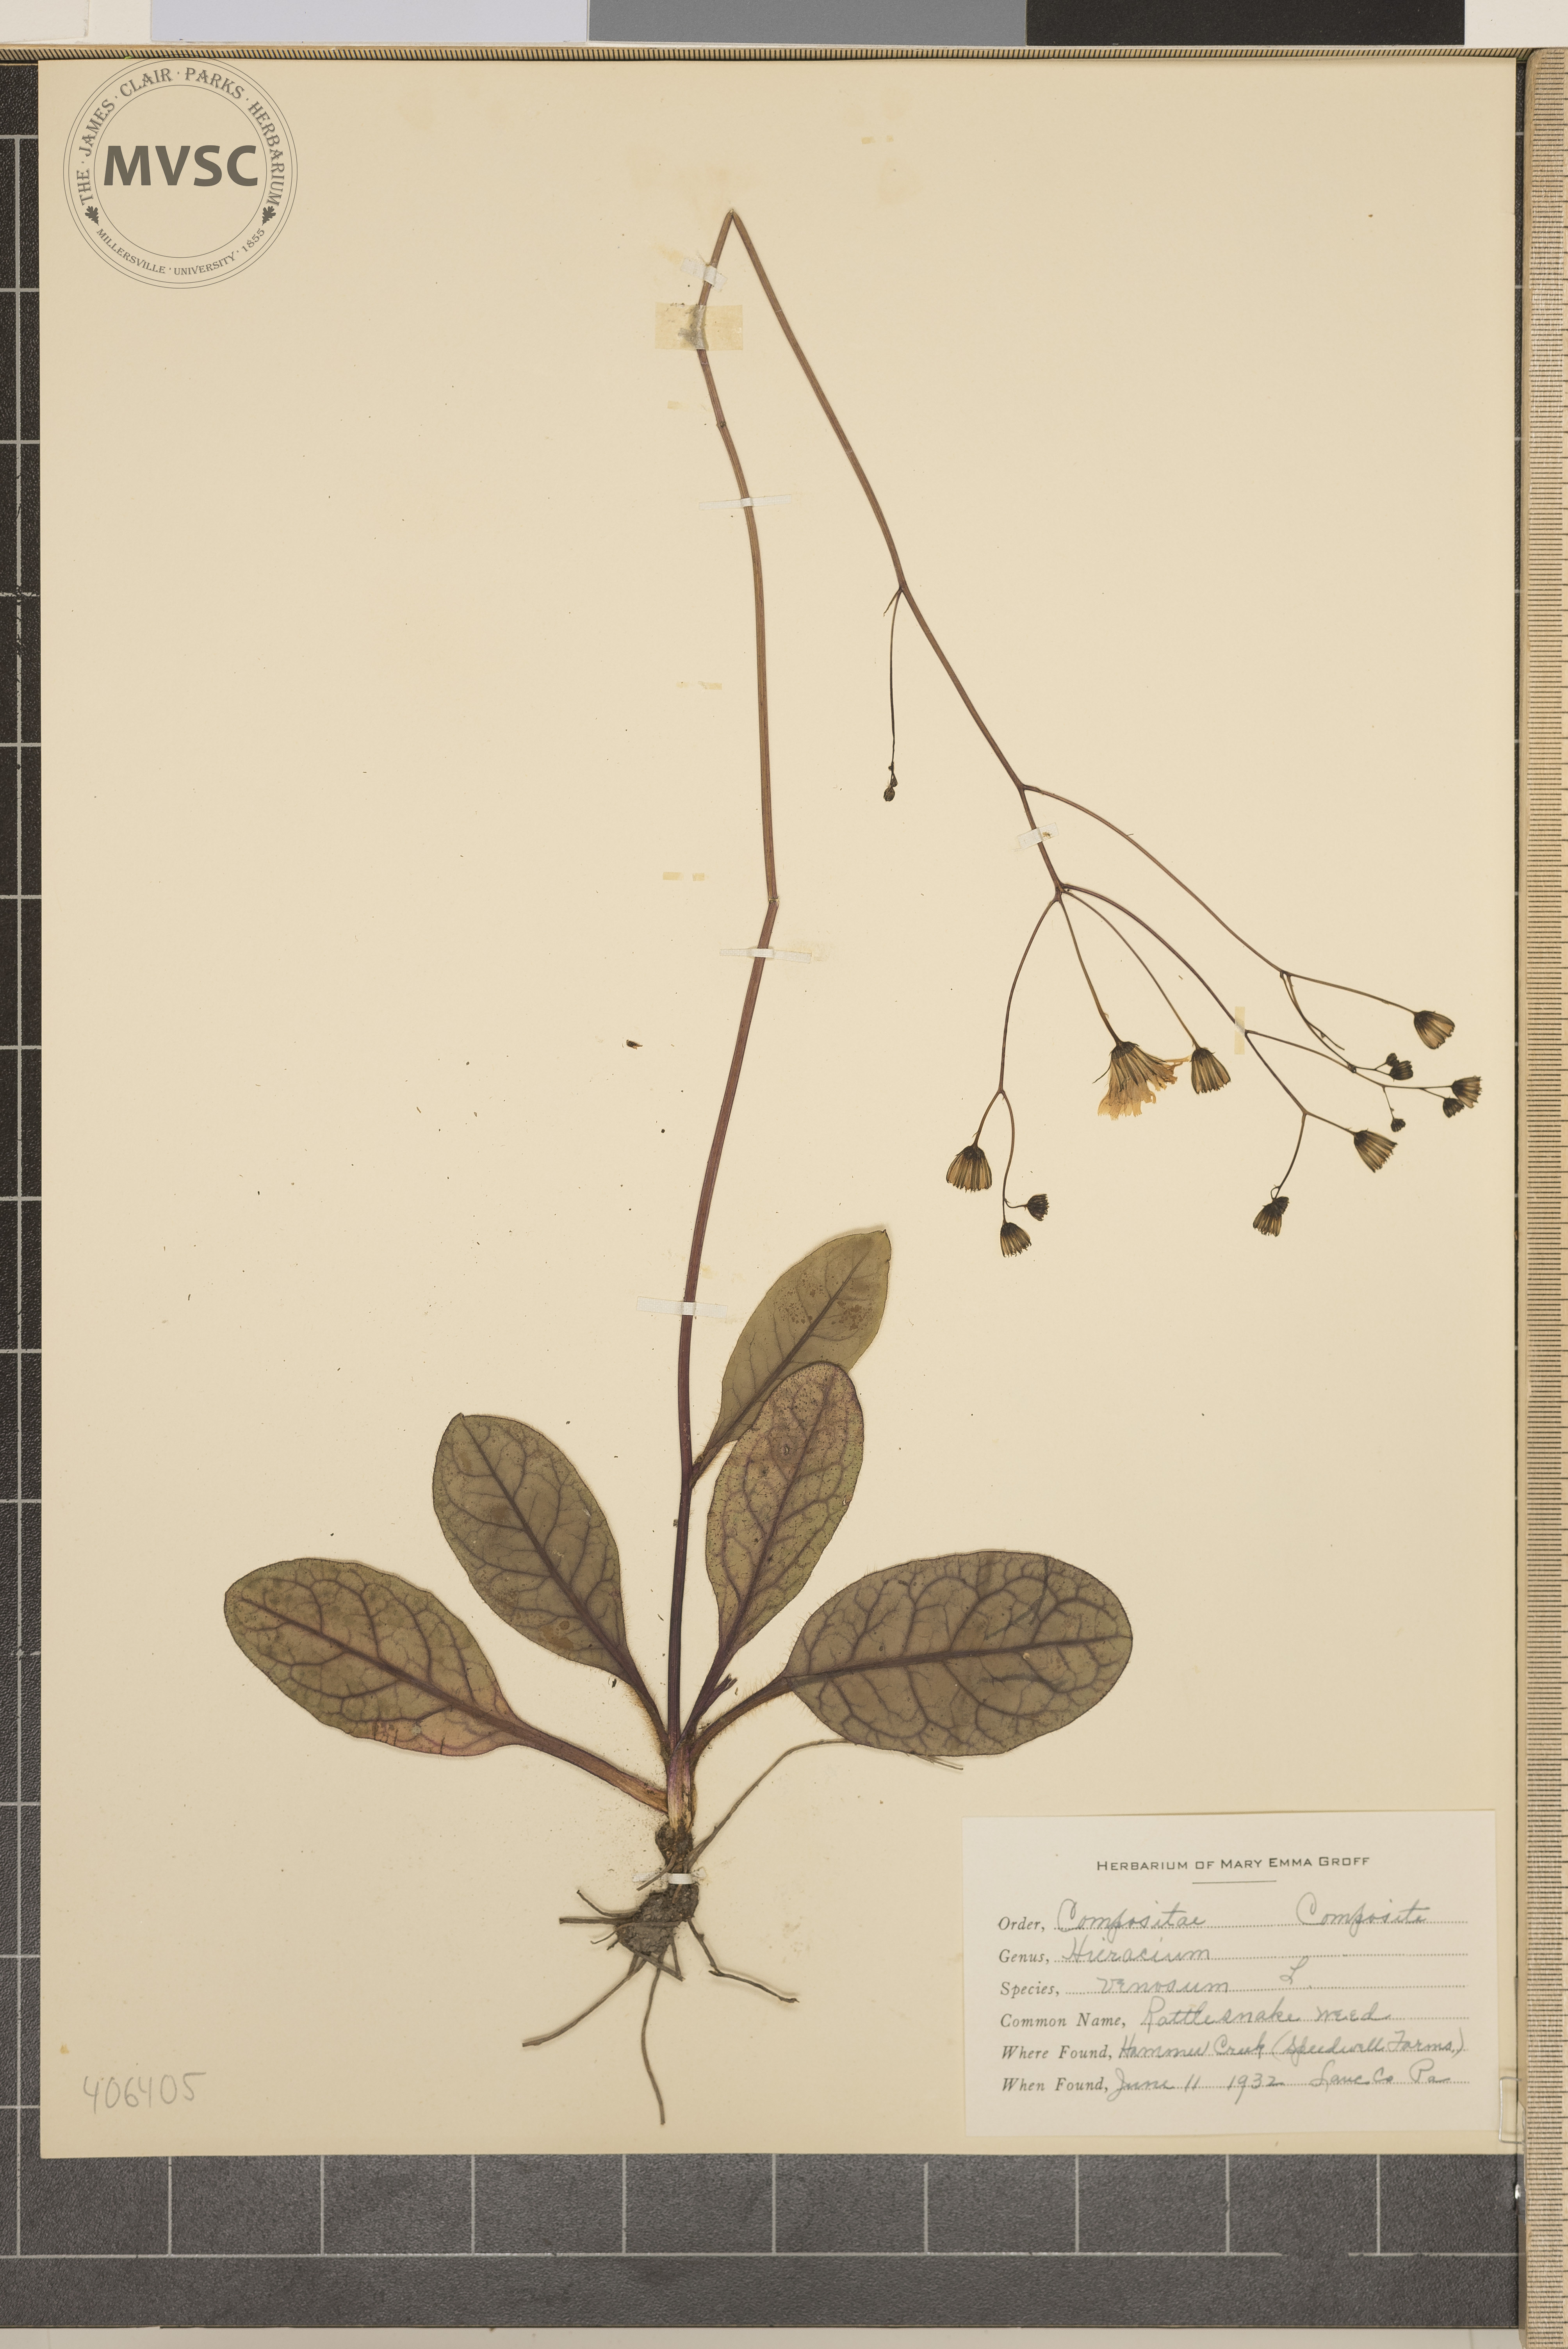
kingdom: Plantae
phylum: Tracheophyta
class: Magnoliopsida
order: Asterales
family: Asteraceae
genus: Hieracium
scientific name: Hieracium venosum
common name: Rattlesnake weed
